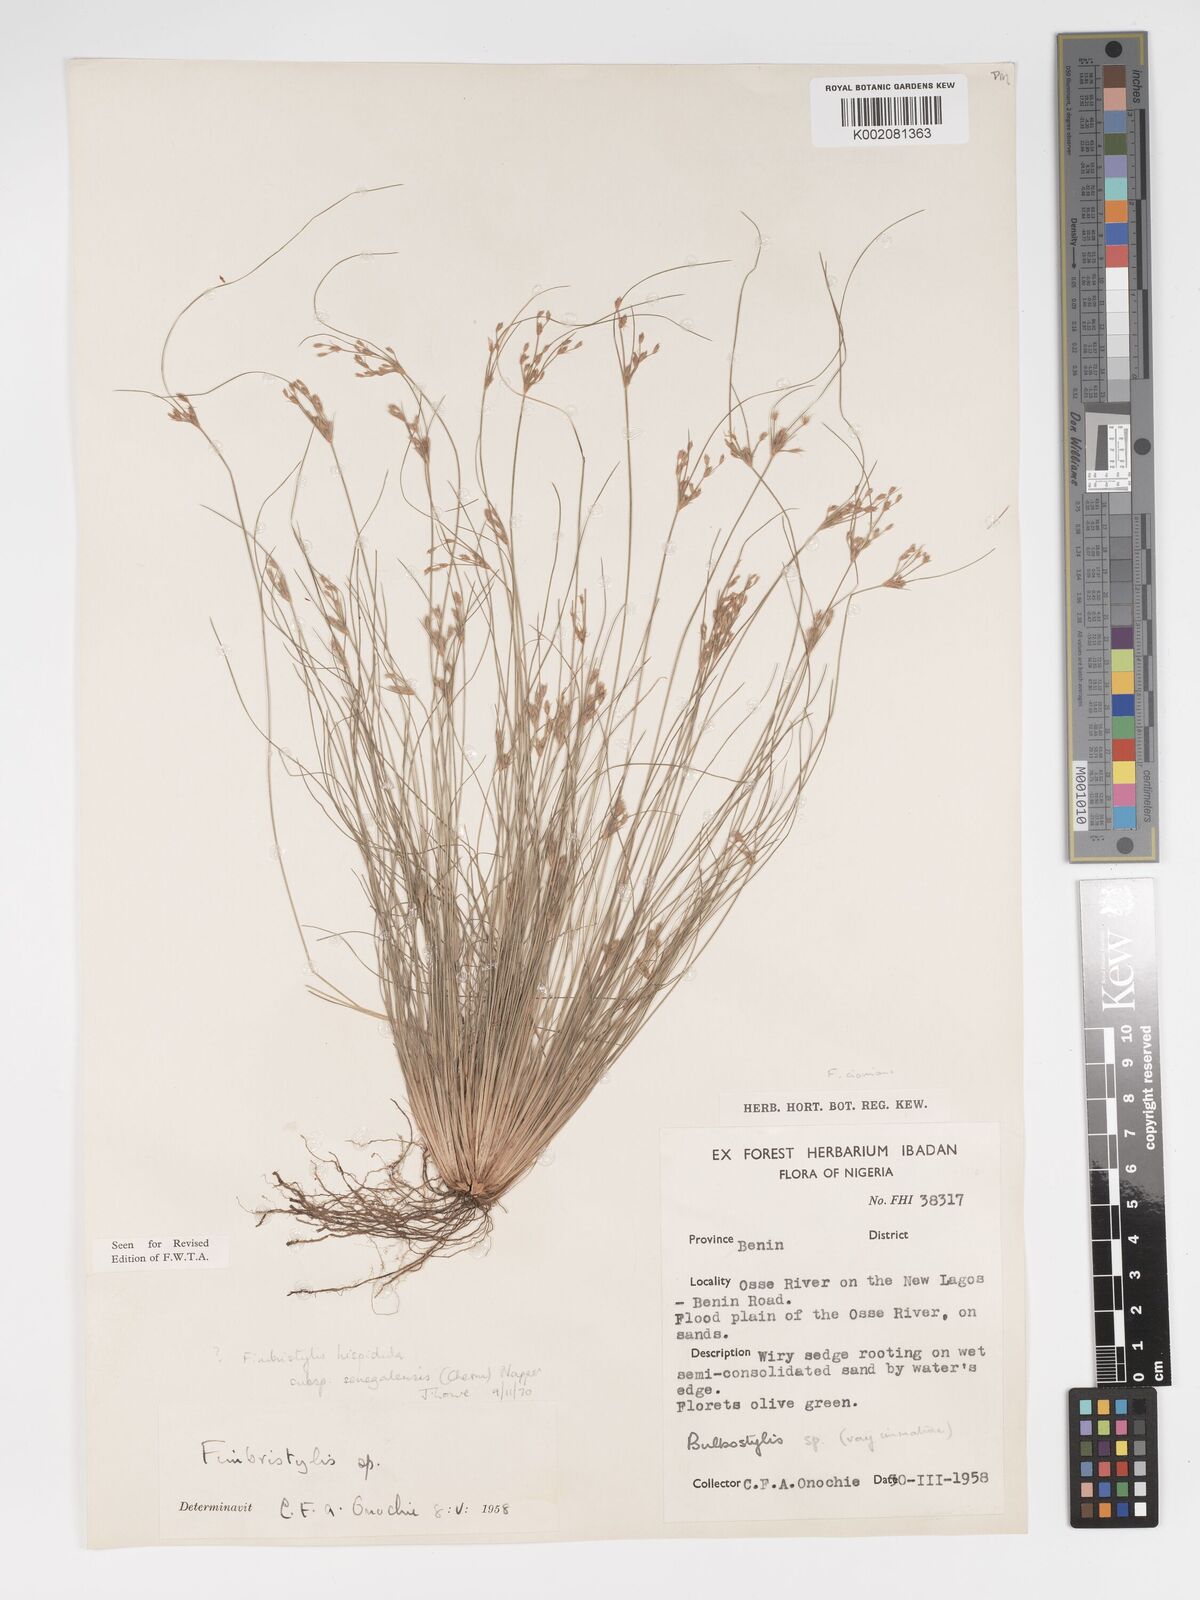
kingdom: Plantae
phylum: Tracheophyta
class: Liliopsida
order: Poales
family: Cyperaceae
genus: Bulbostylis
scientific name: Bulbostylis hispidula
